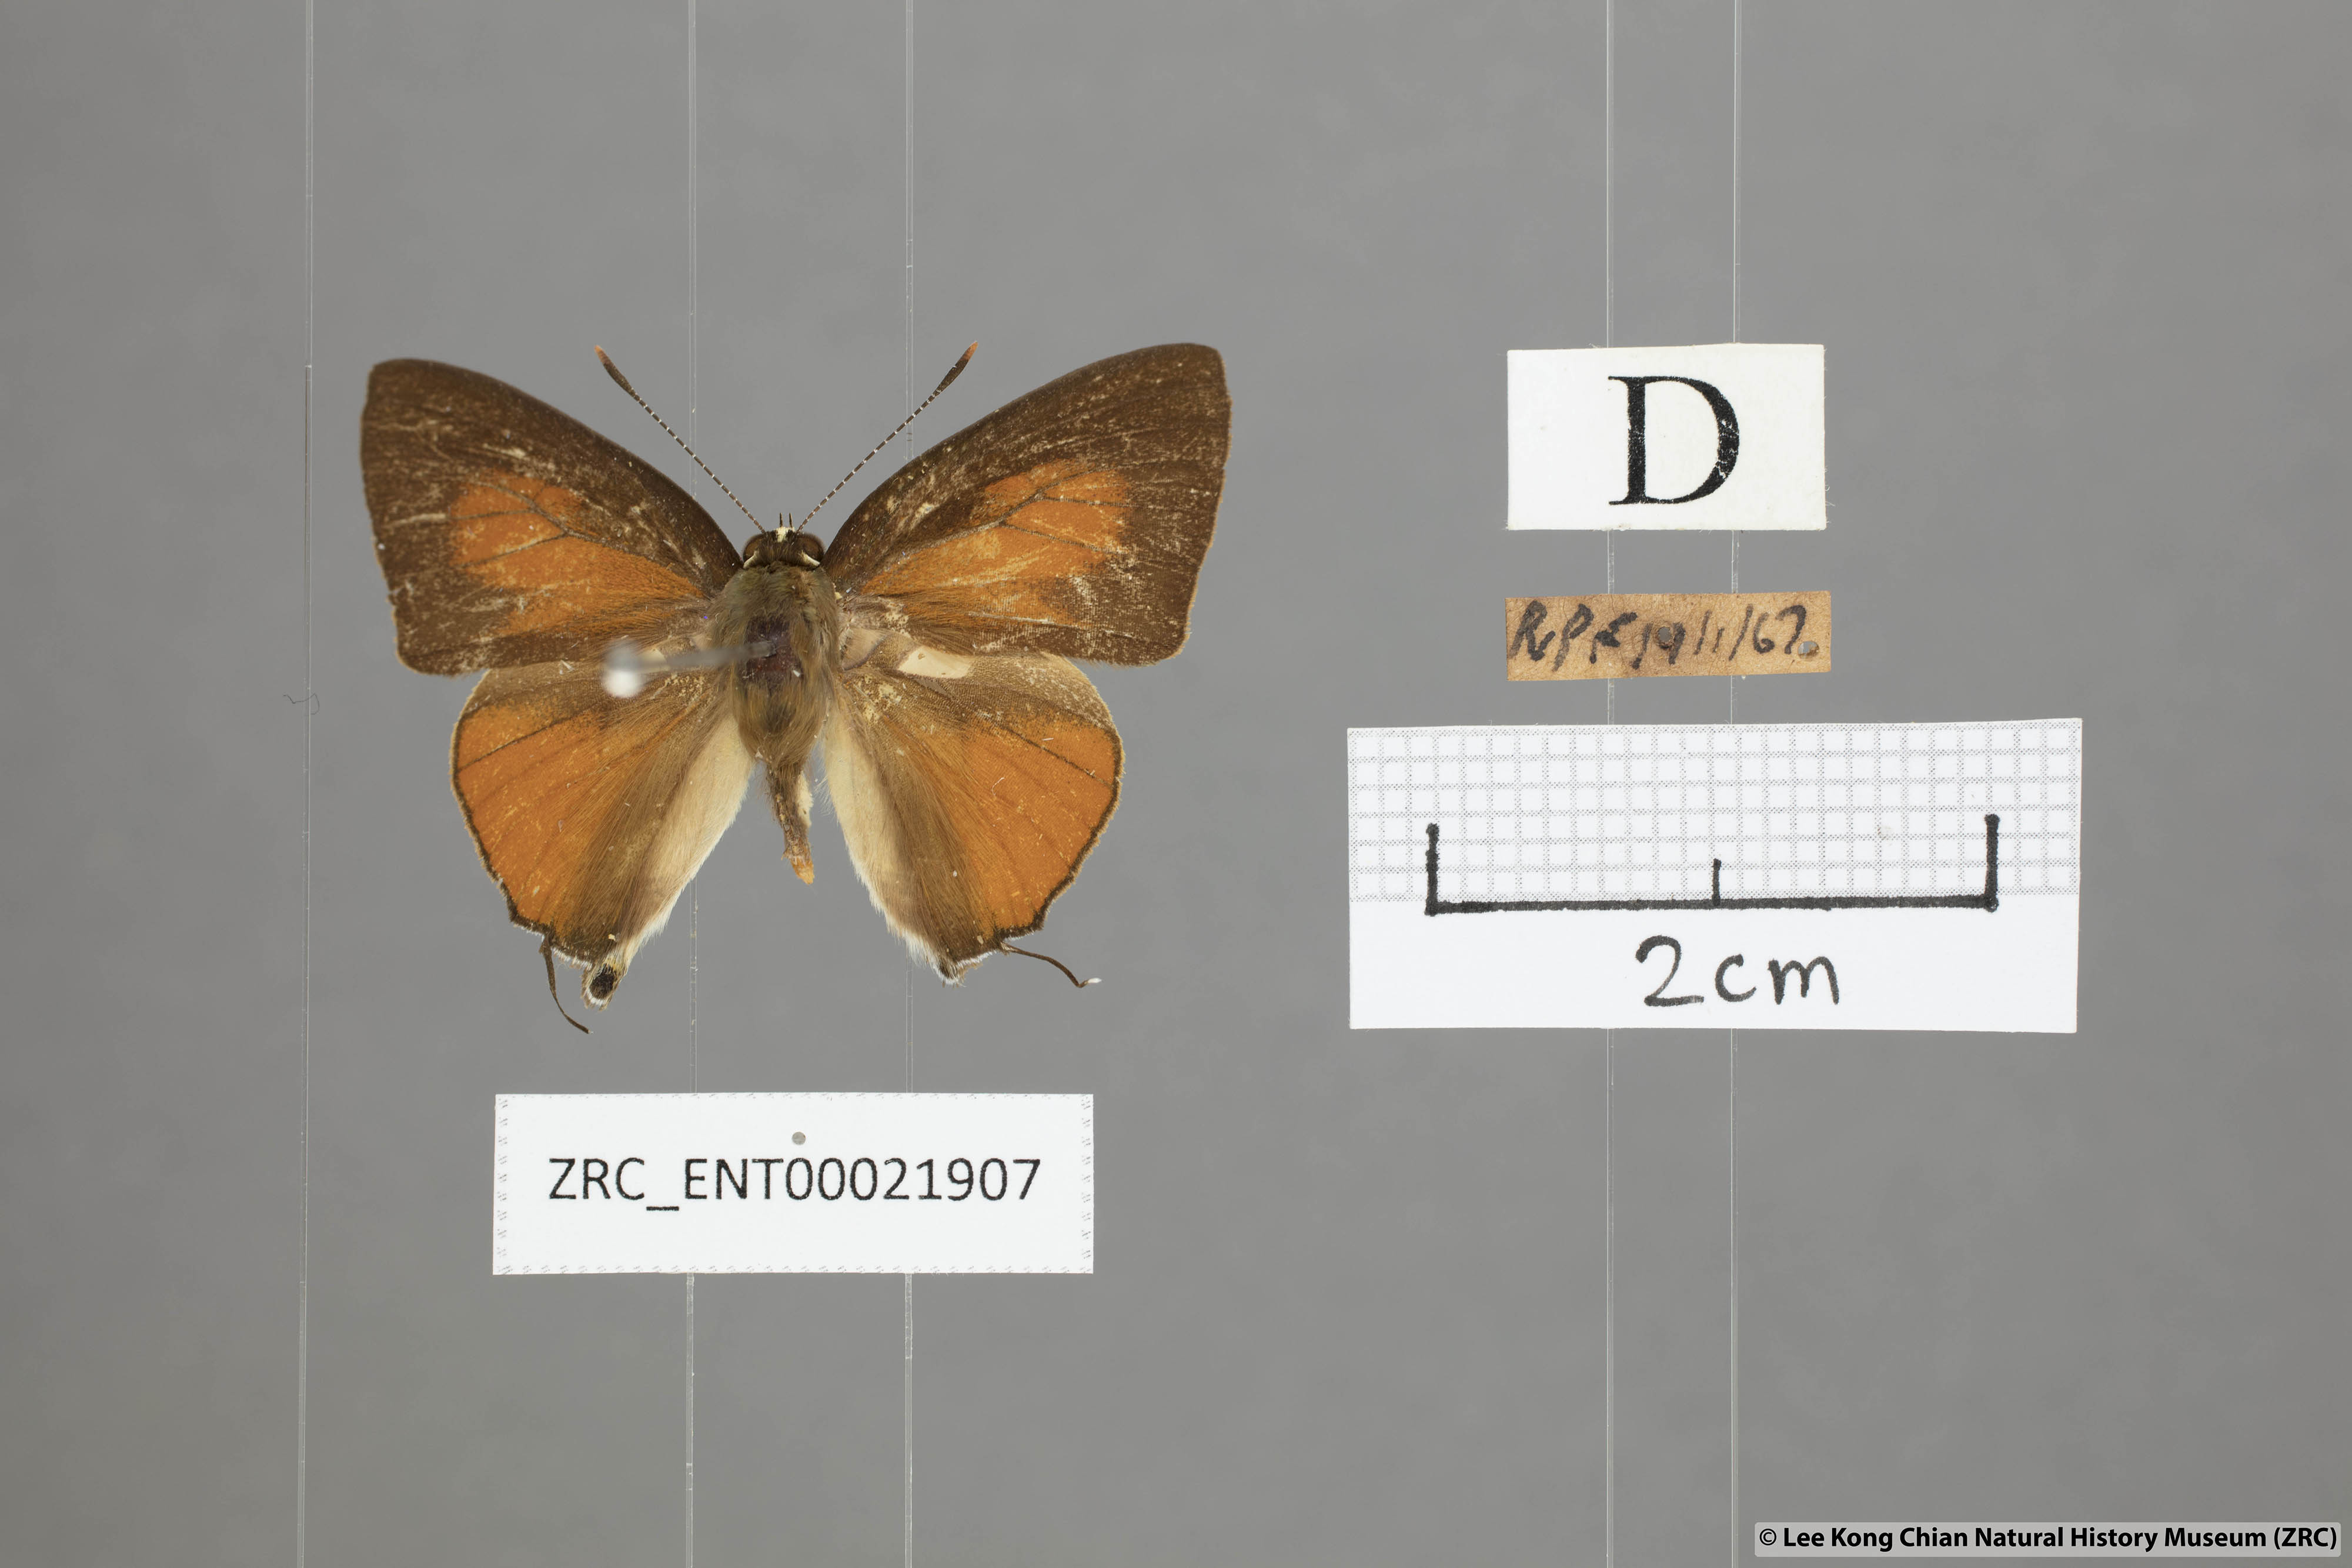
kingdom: Animalia
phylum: Arthropoda
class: Insecta
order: Lepidoptera
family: Lycaenidae
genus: Rapala
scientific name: Rapala suffusa
